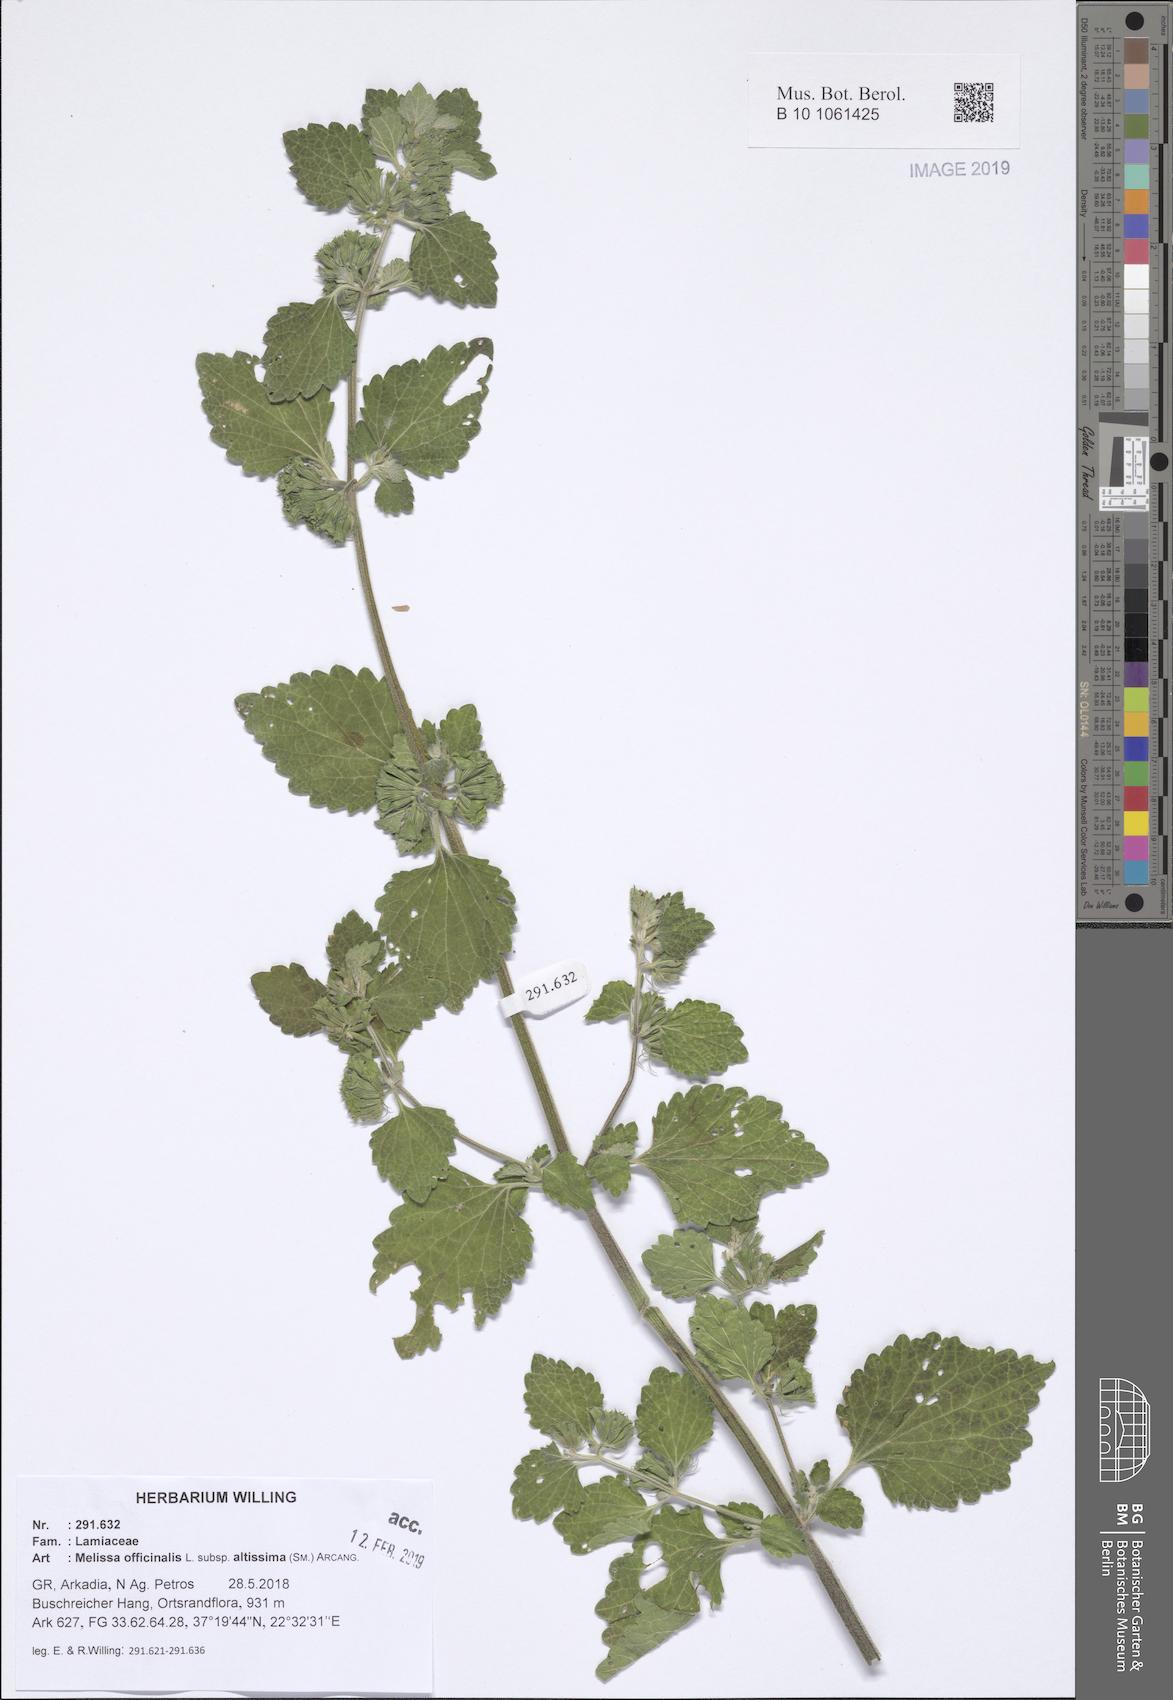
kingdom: Plantae
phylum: Tracheophyta
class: Magnoliopsida
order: Lamiales
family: Lamiaceae
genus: Melissa
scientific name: Melissa officinalis
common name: Balm
